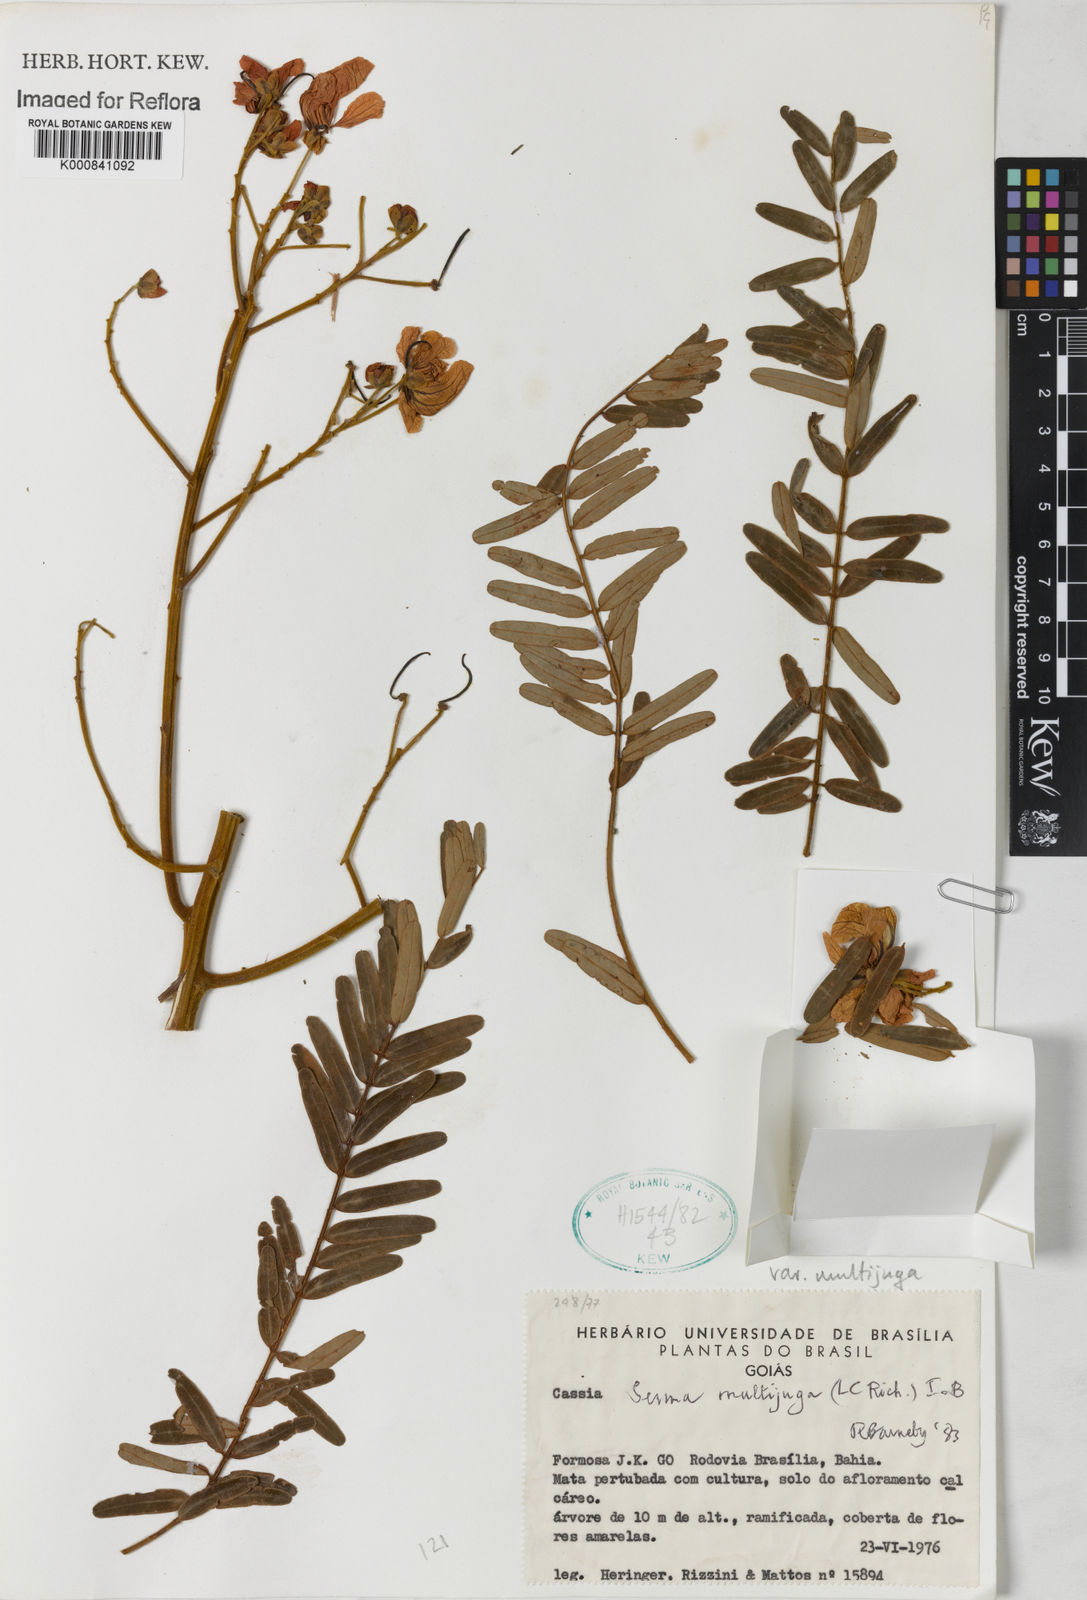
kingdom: Plantae
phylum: Tracheophyta
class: Magnoliopsida
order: Fabales
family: Fabaceae
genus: Senna
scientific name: Senna multijuga
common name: False sicklepod
